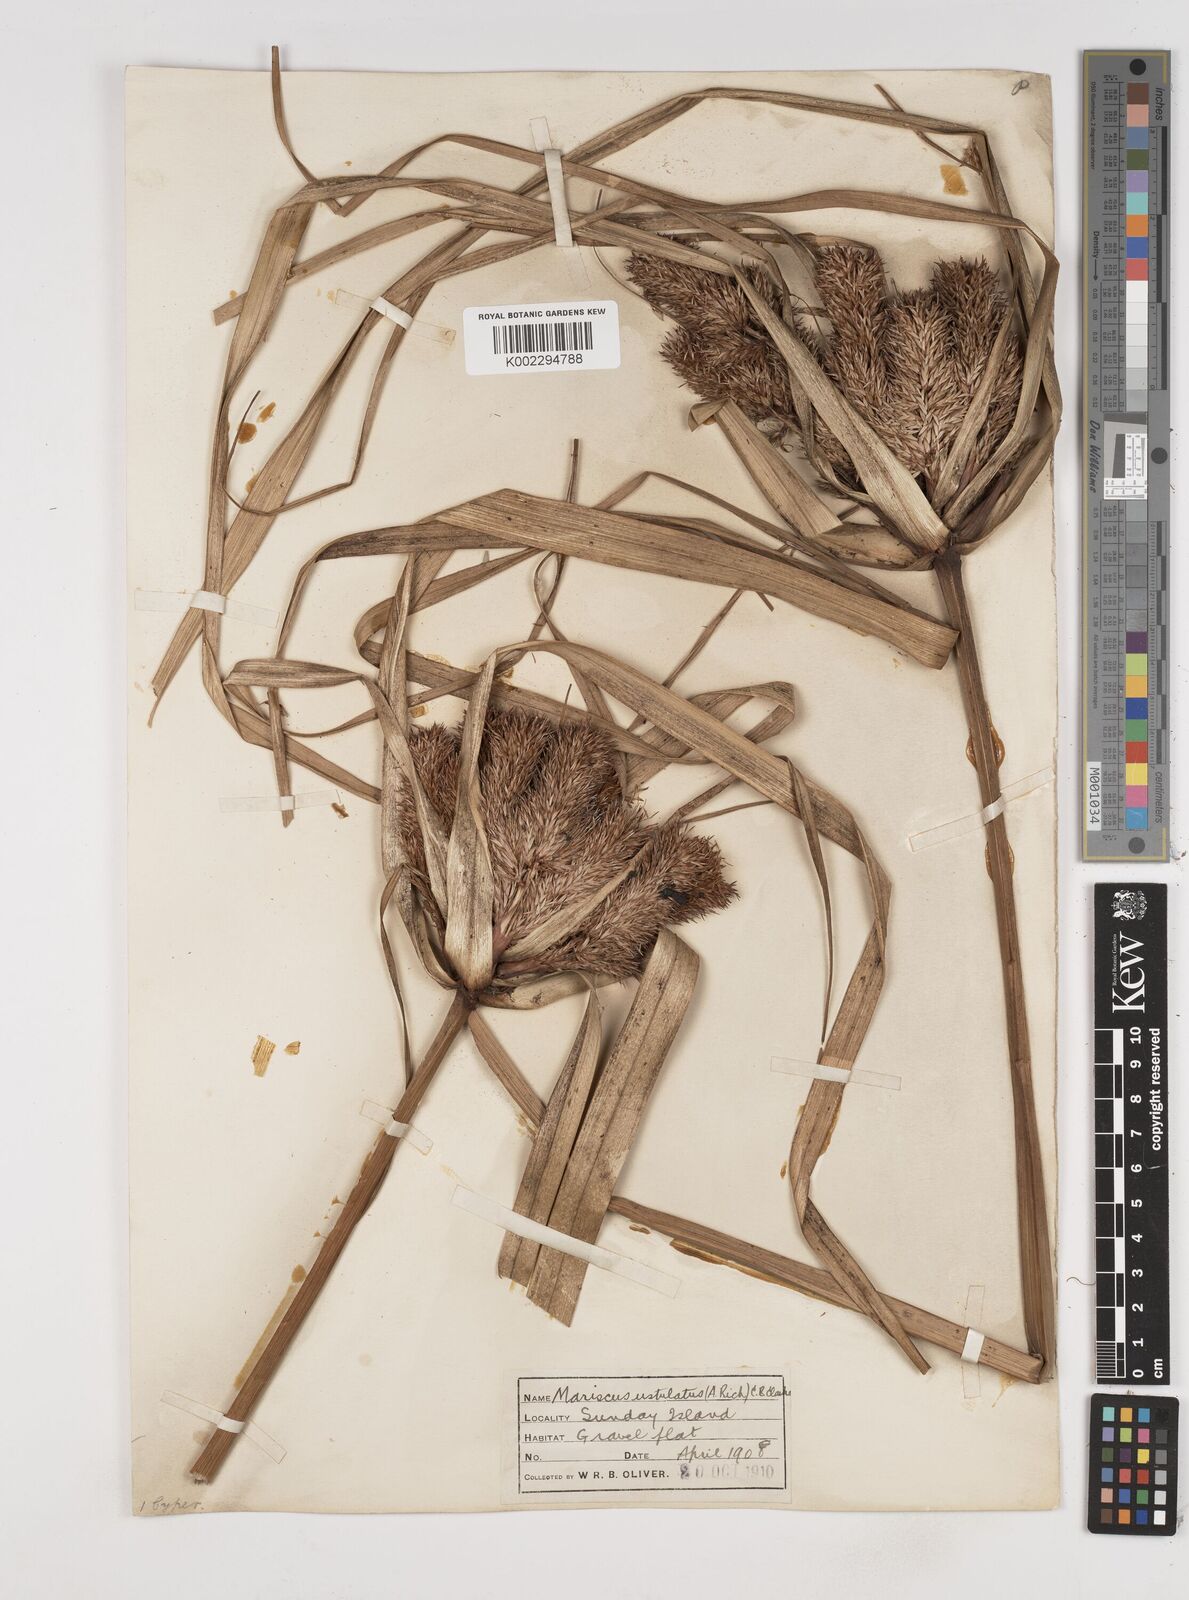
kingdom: Plantae
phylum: Tracheophyta
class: Liliopsida
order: Poales
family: Cyperaceae
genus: Cyperus
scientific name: Cyperus ustulatus
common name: Giant umbrella-sedge
